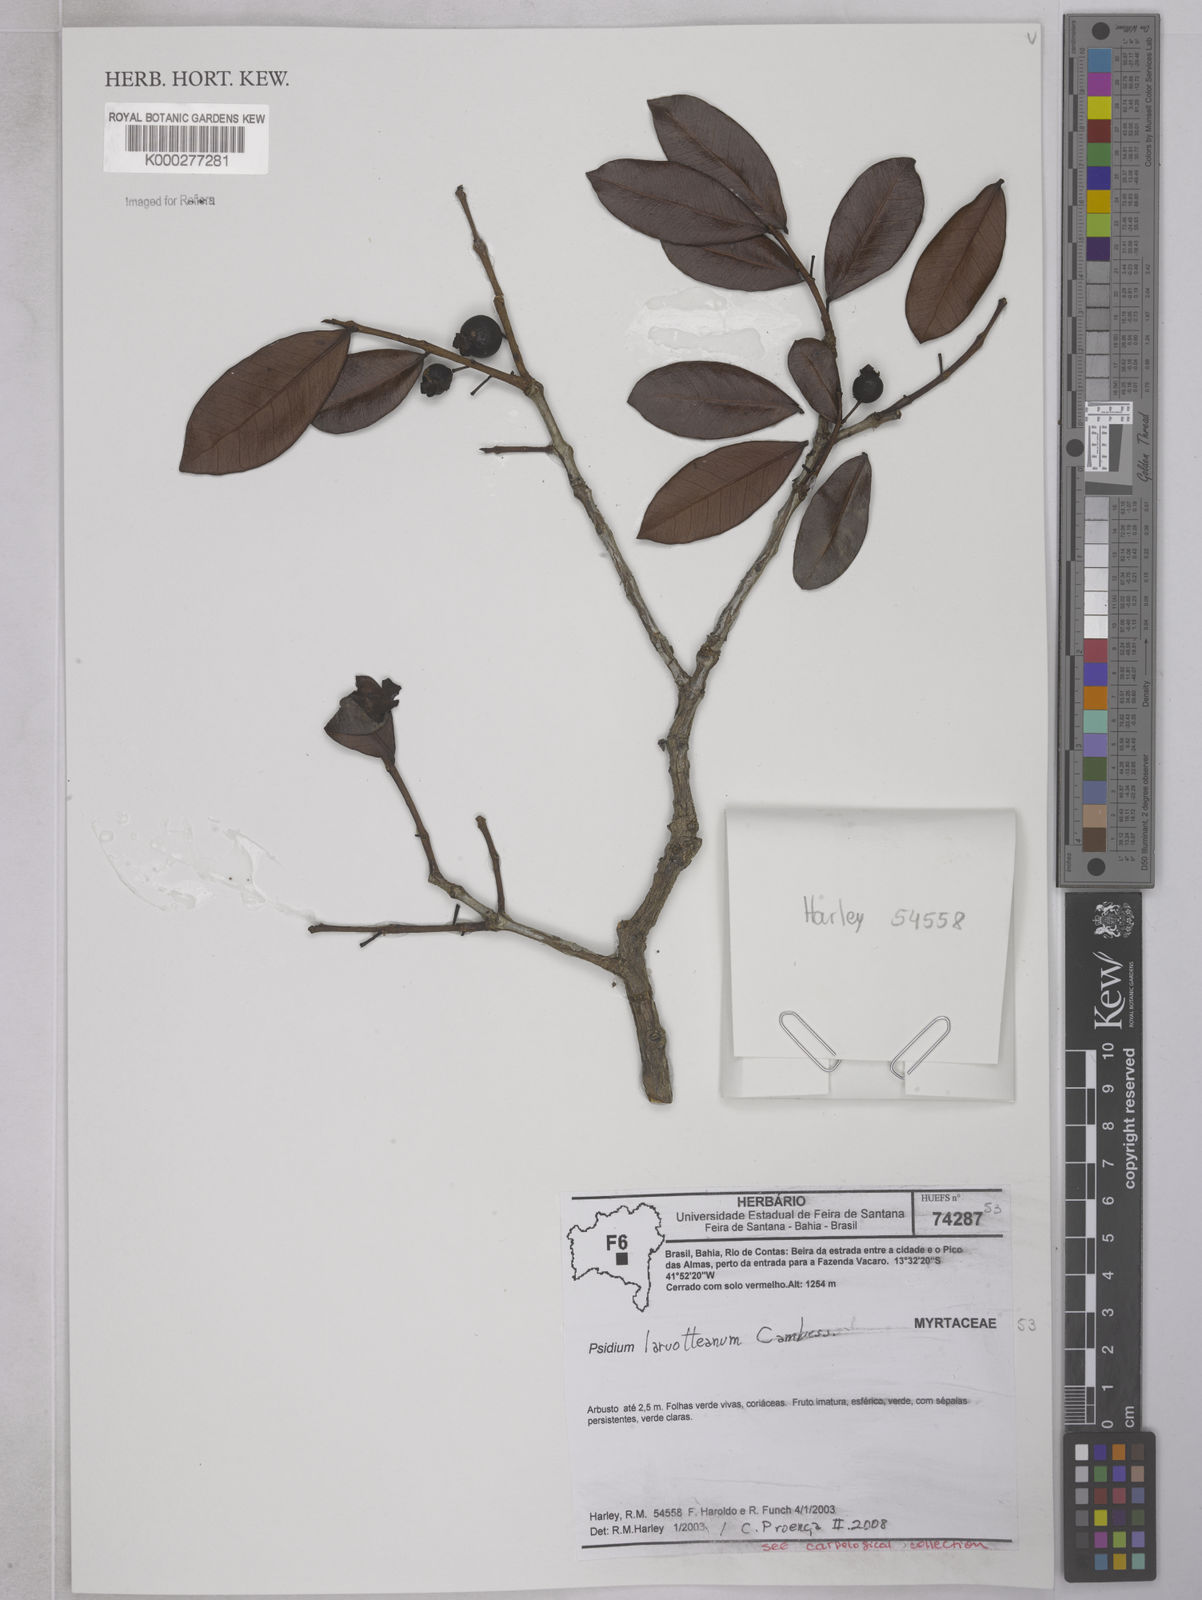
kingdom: Plantae
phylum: Tracheophyta
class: Magnoliopsida
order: Myrtales
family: Myrtaceae
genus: Psidium
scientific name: Psidium larueotteanum
